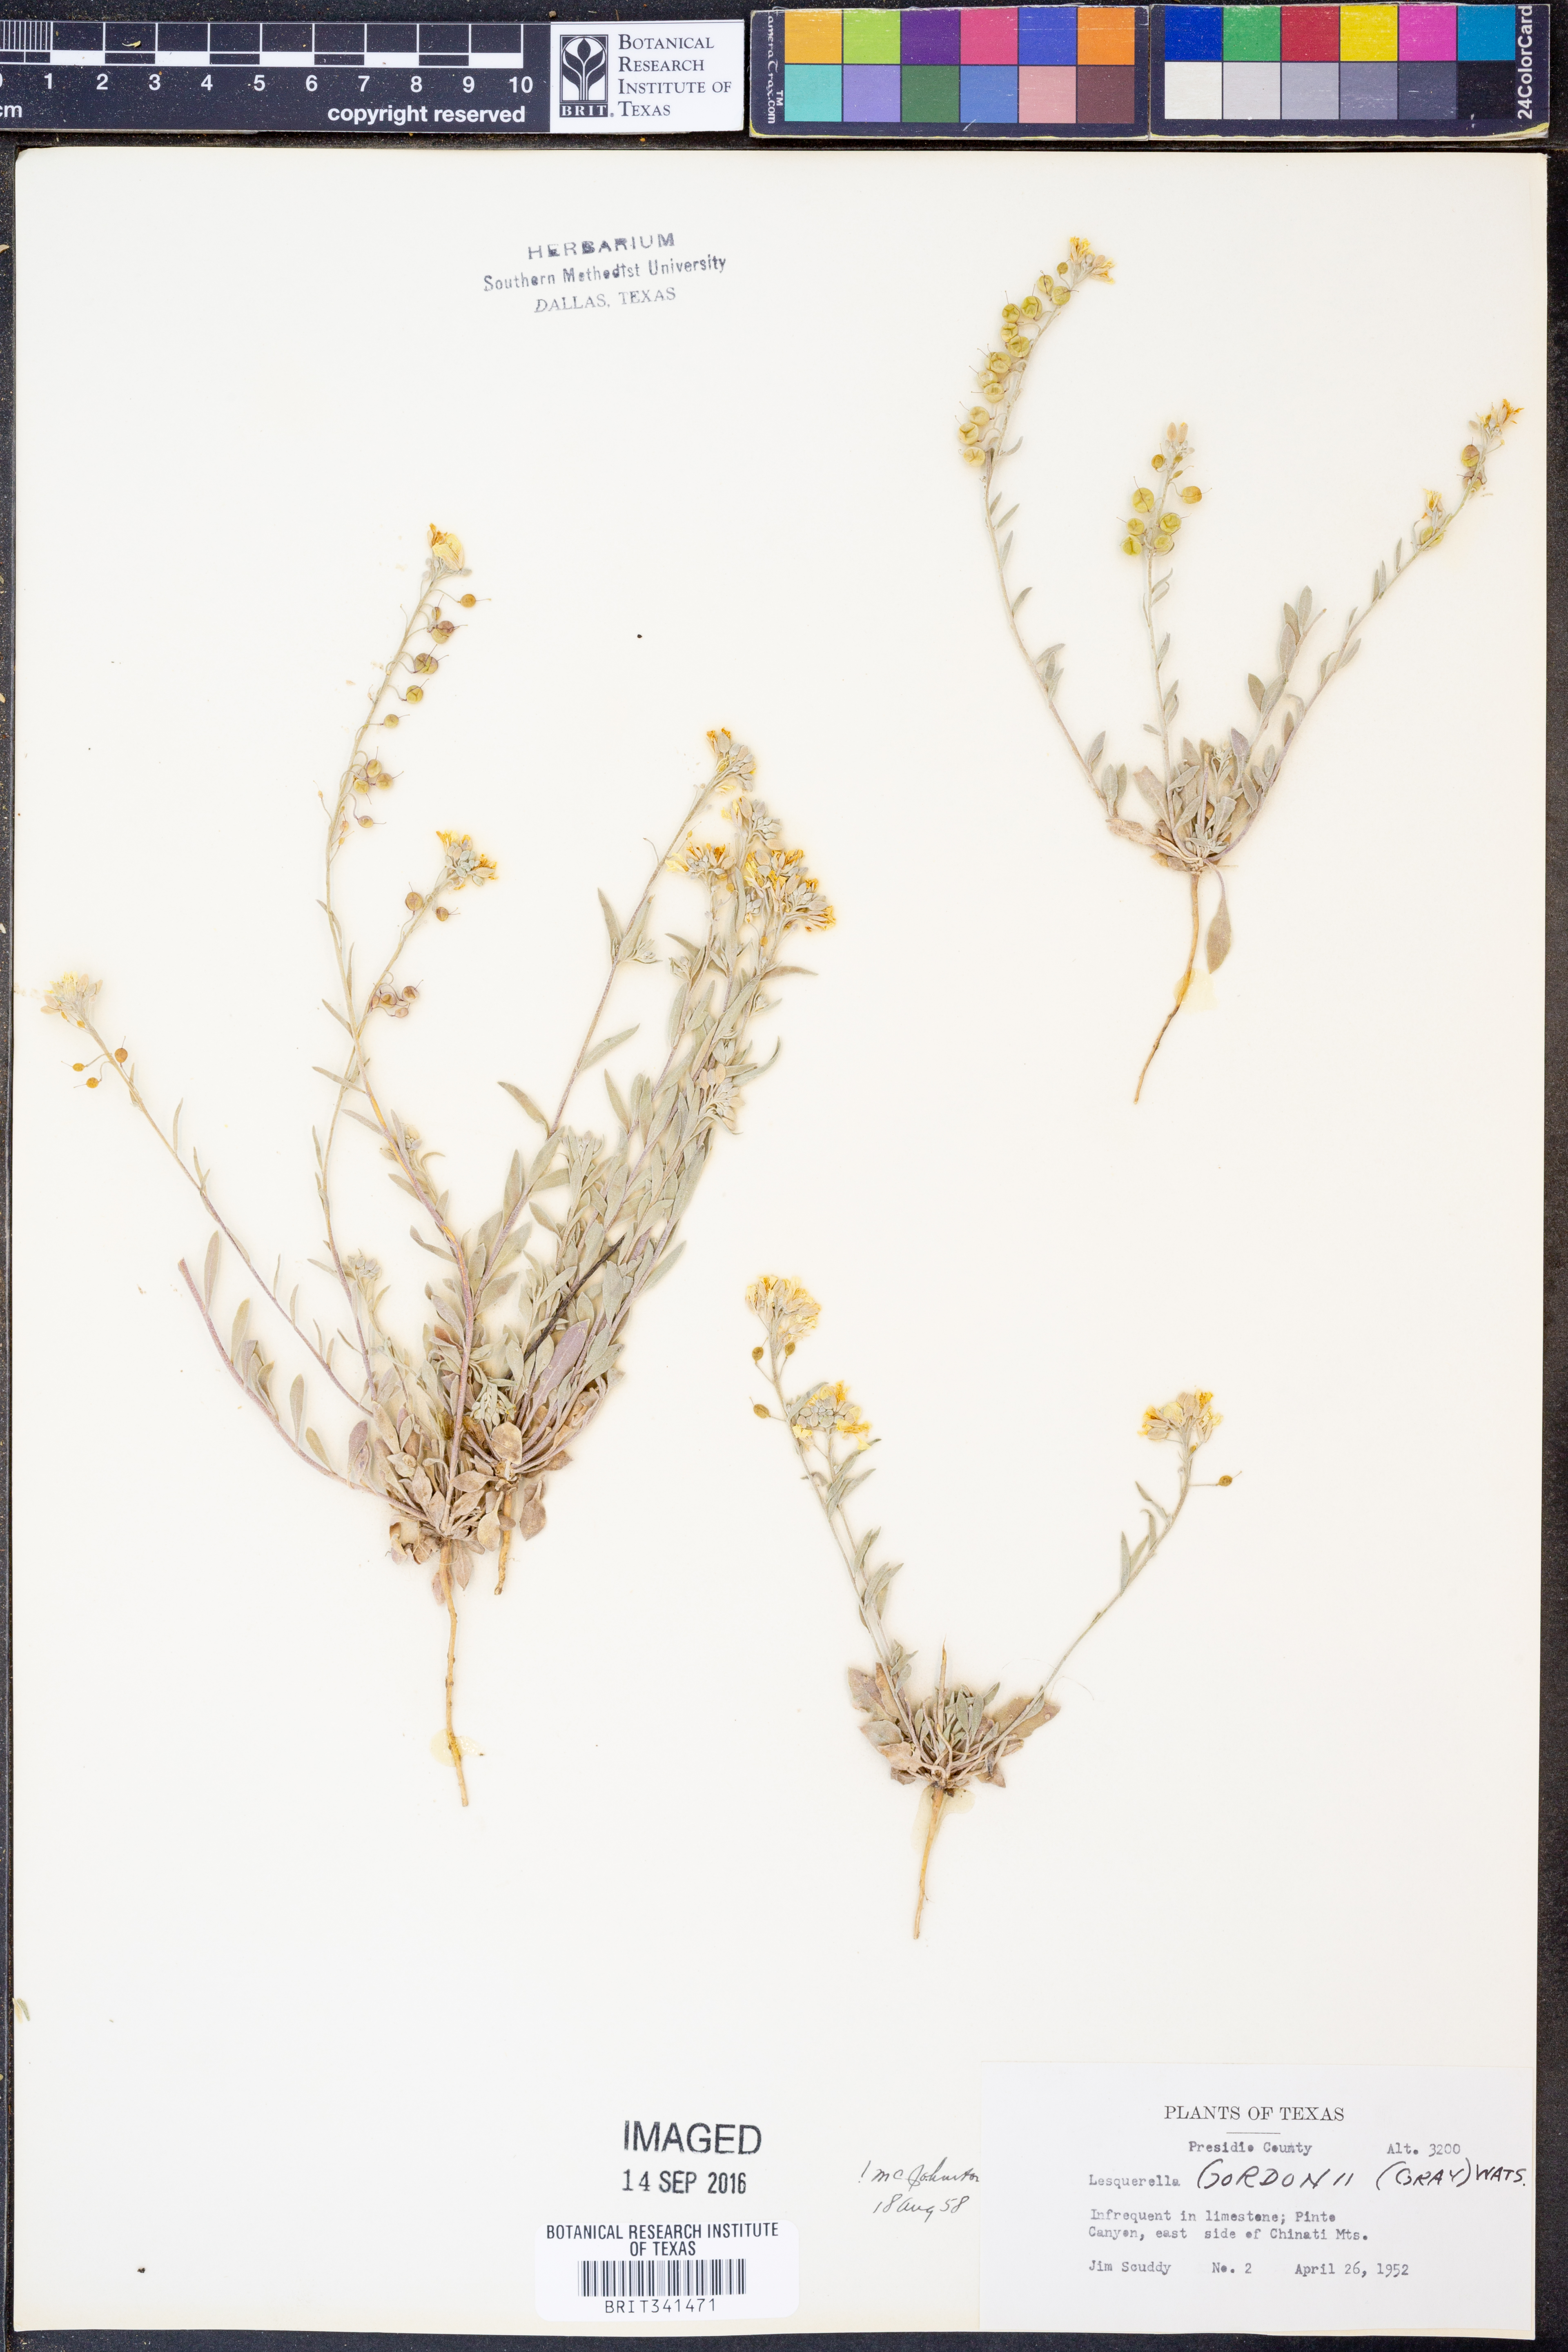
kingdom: Plantae
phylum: Tracheophyta
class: Magnoliopsida
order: Brassicales
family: Brassicaceae
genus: Physaria
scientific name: Physaria gordonii
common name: Gordon's bladderpod
